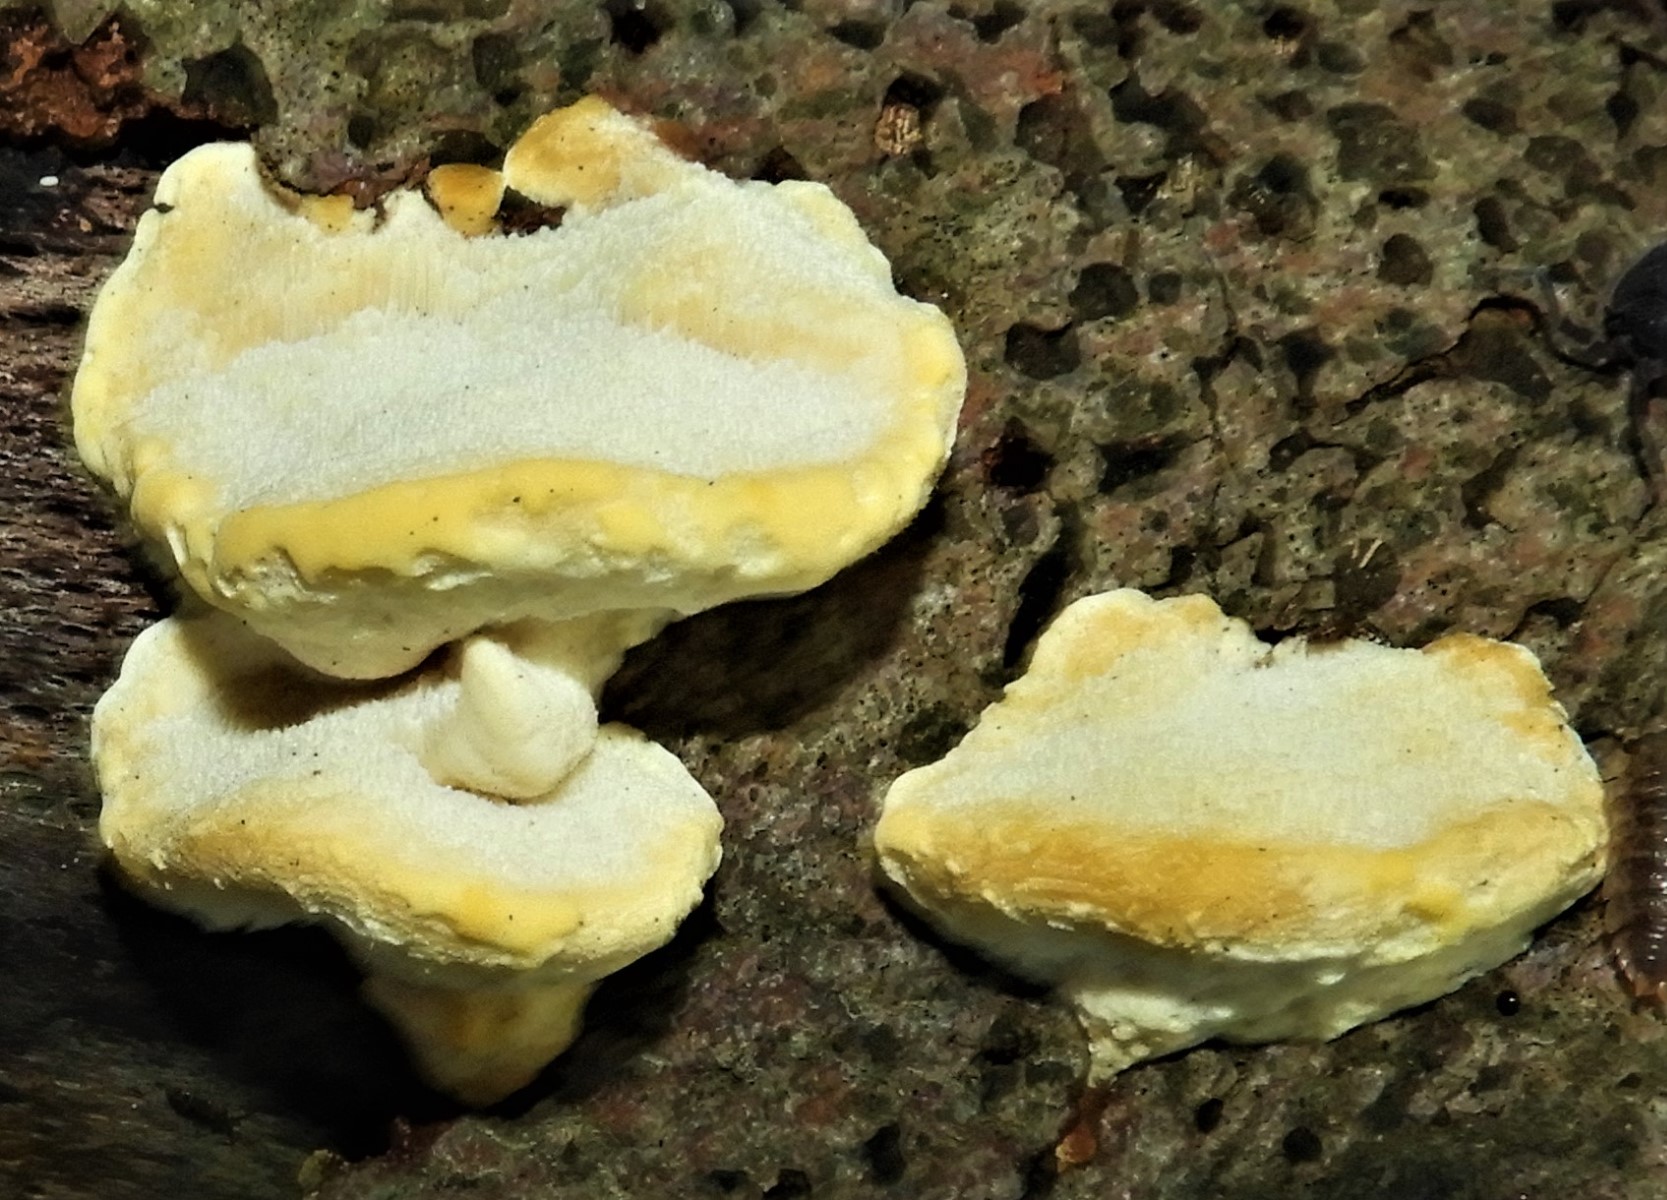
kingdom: Fungi
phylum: Basidiomycota
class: Agaricomycetes
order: Polyporales
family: Steccherinaceae
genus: Antrodiella
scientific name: Antrodiella serpula
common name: gulrandet elastikporesvamp
